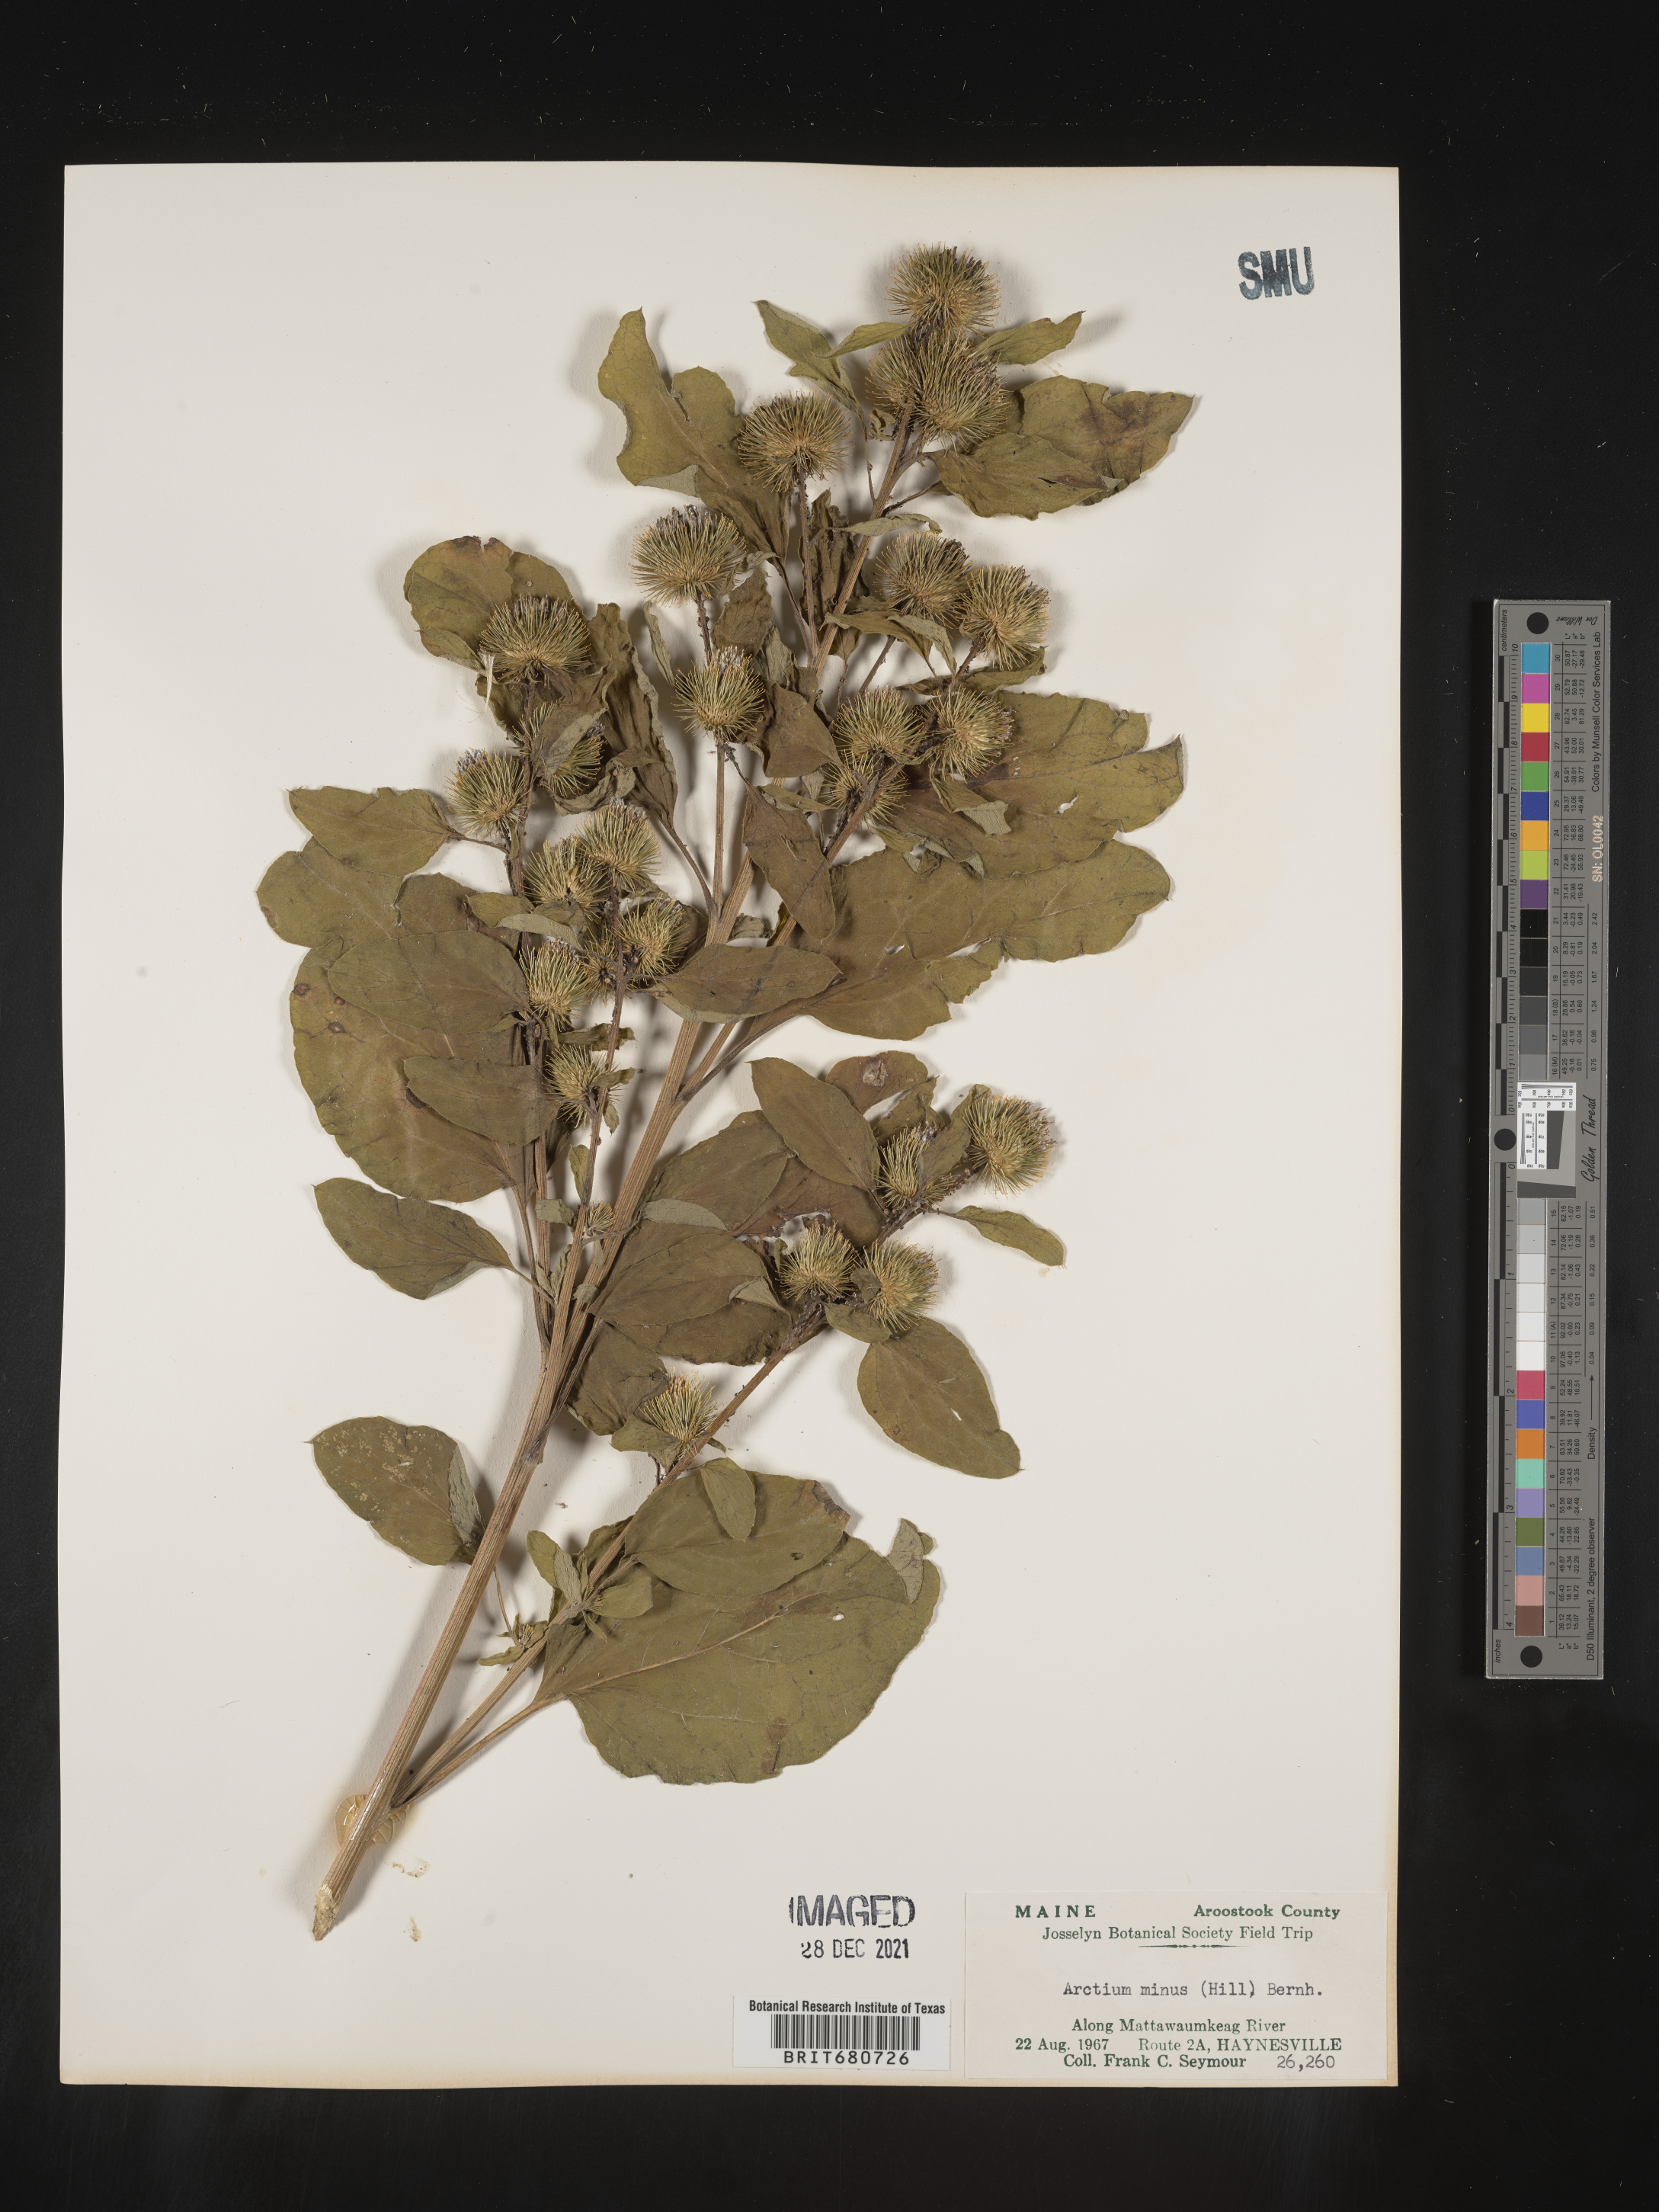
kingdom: Plantae
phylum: Tracheophyta
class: Magnoliopsida
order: Asterales
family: Asteraceae
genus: Arctium
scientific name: Arctium minus
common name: Lesser burdock
